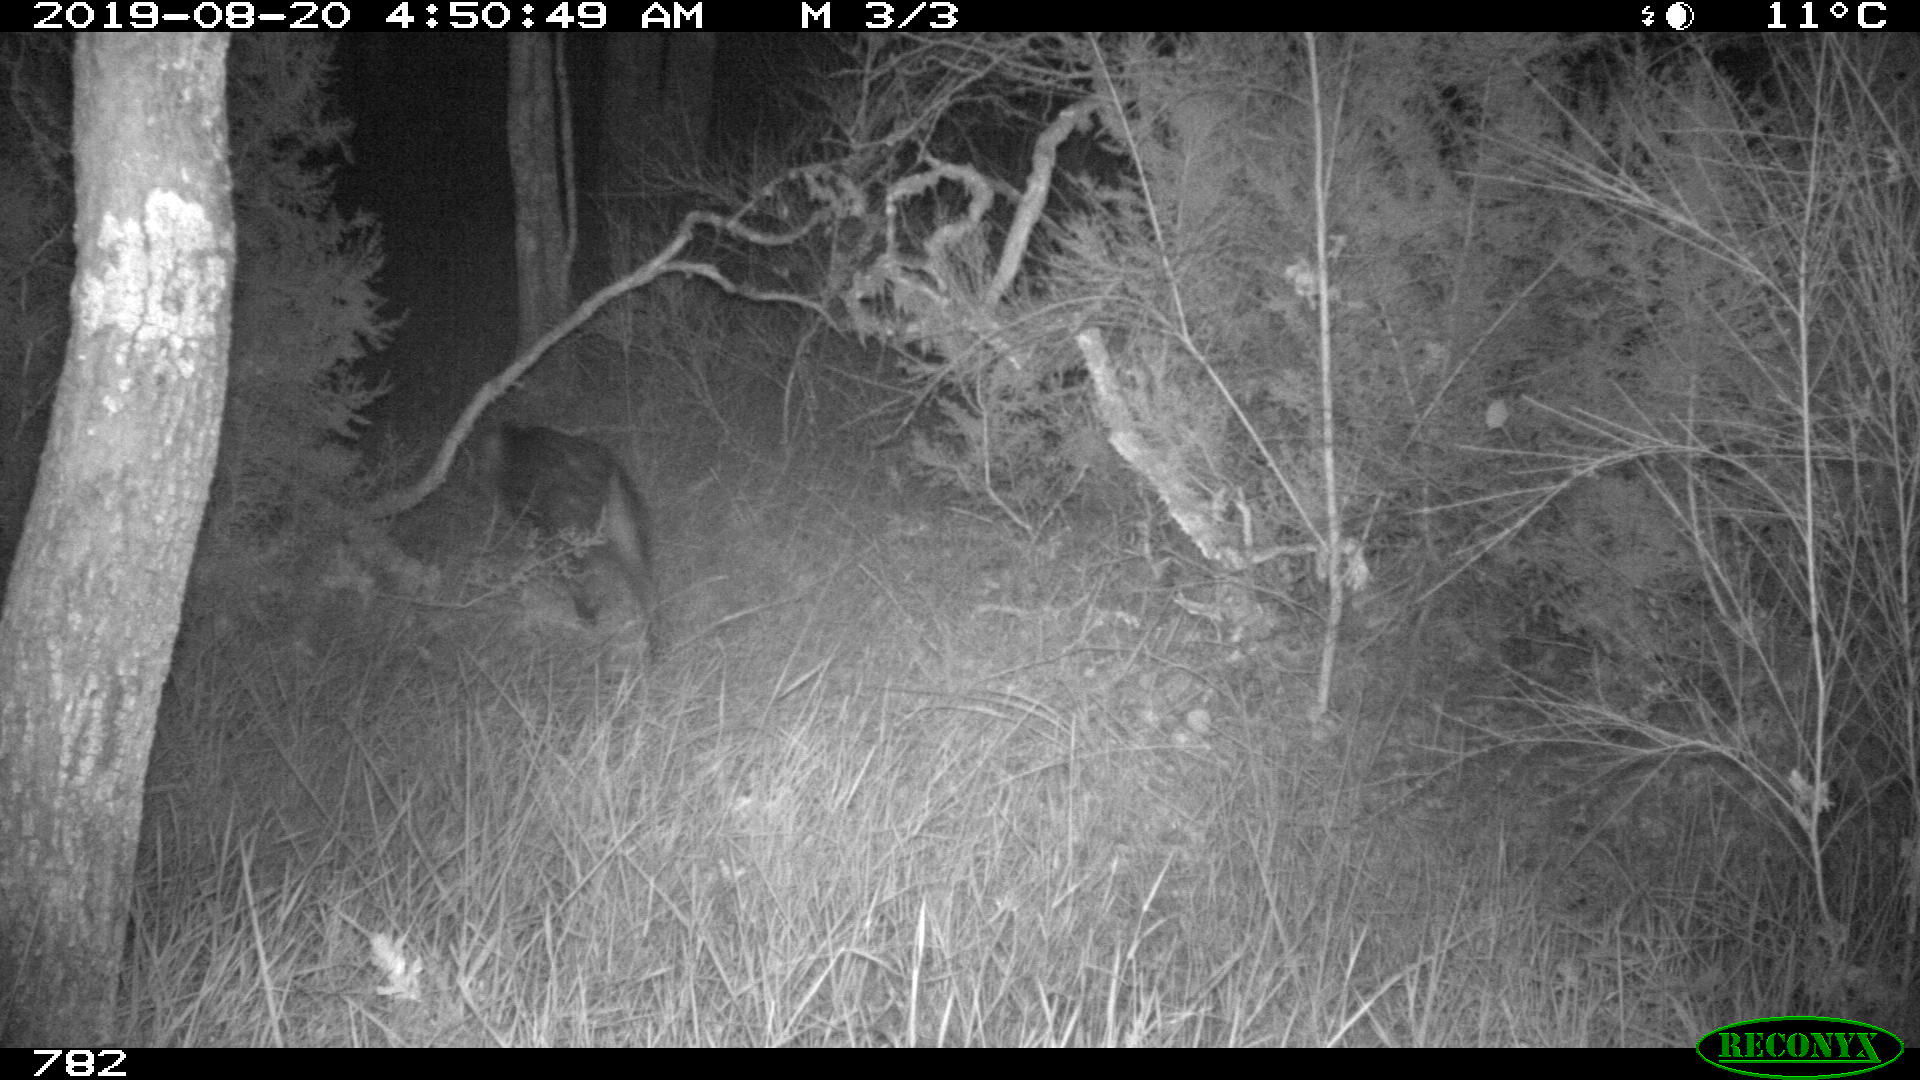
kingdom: Animalia
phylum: Chordata
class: Mammalia
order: Artiodactyla
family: Suidae
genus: Sus
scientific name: Sus scrofa
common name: Wild boar
